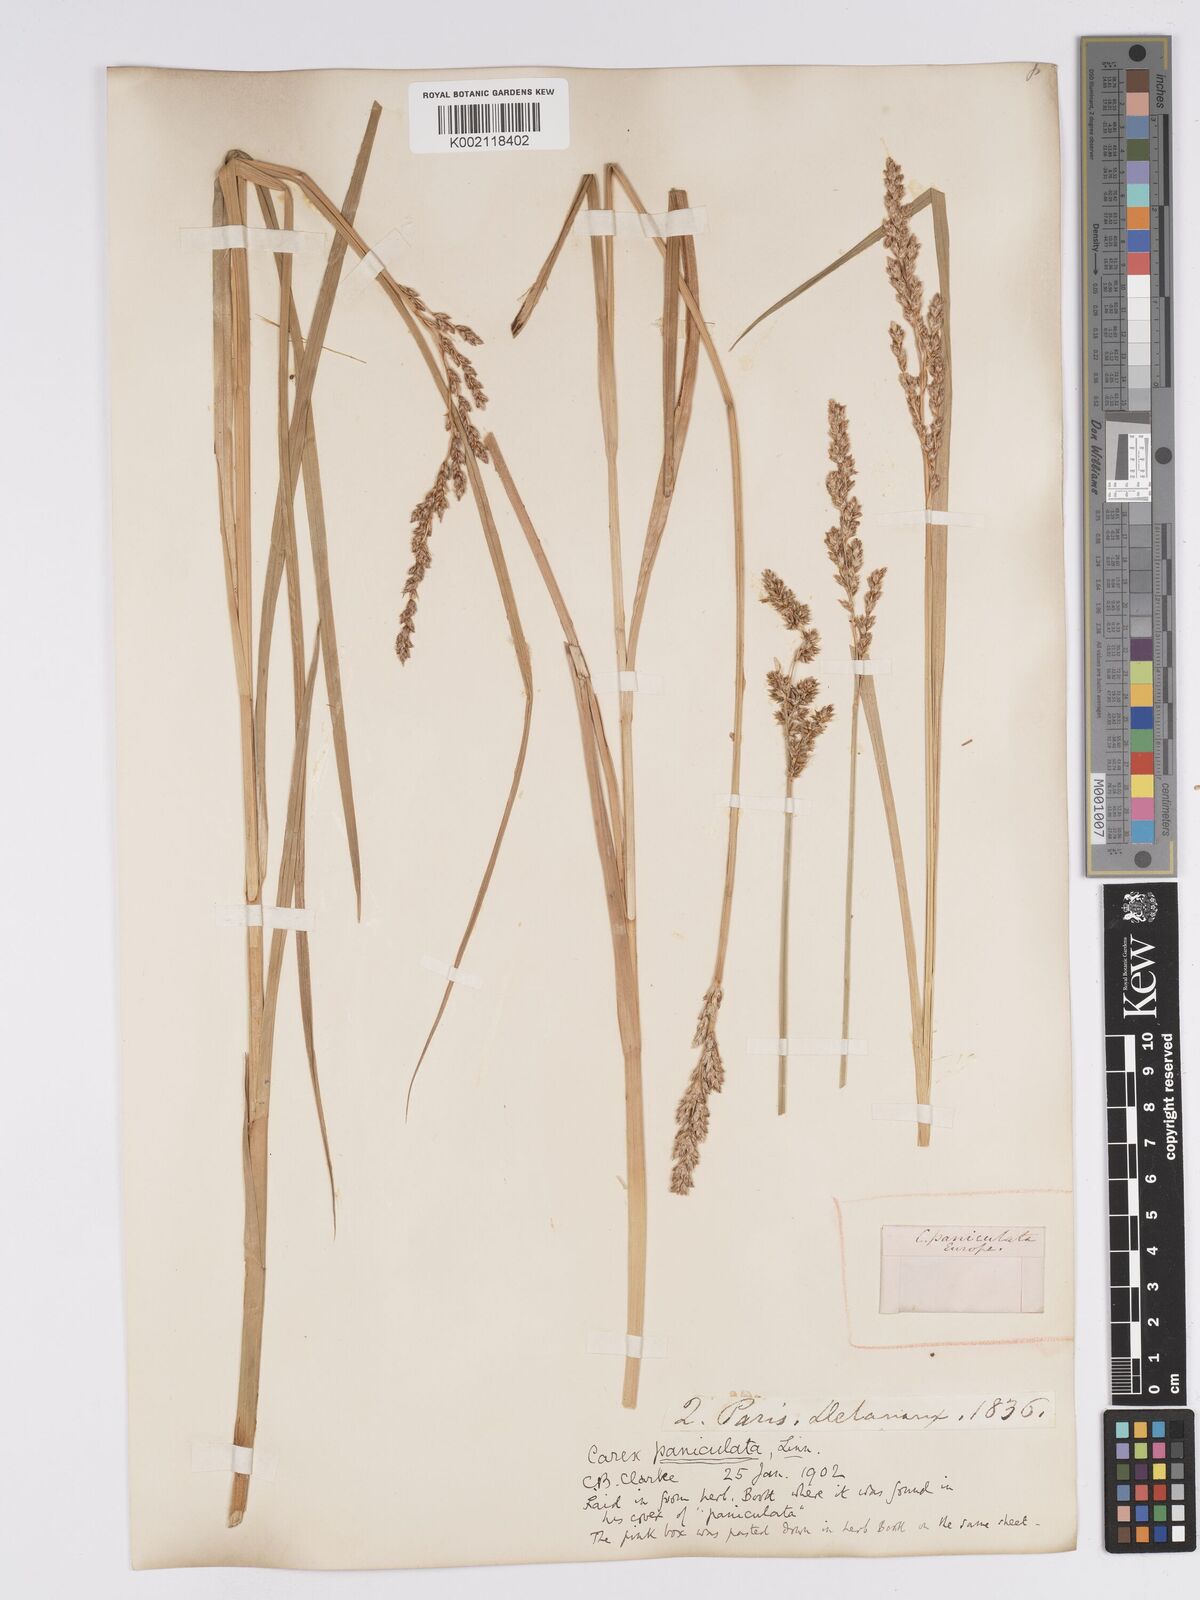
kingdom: Plantae
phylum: Tracheophyta
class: Liliopsida
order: Poales
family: Cyperaceae
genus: Carex
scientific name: Carex paniculata
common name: Greater tussock-sedge
